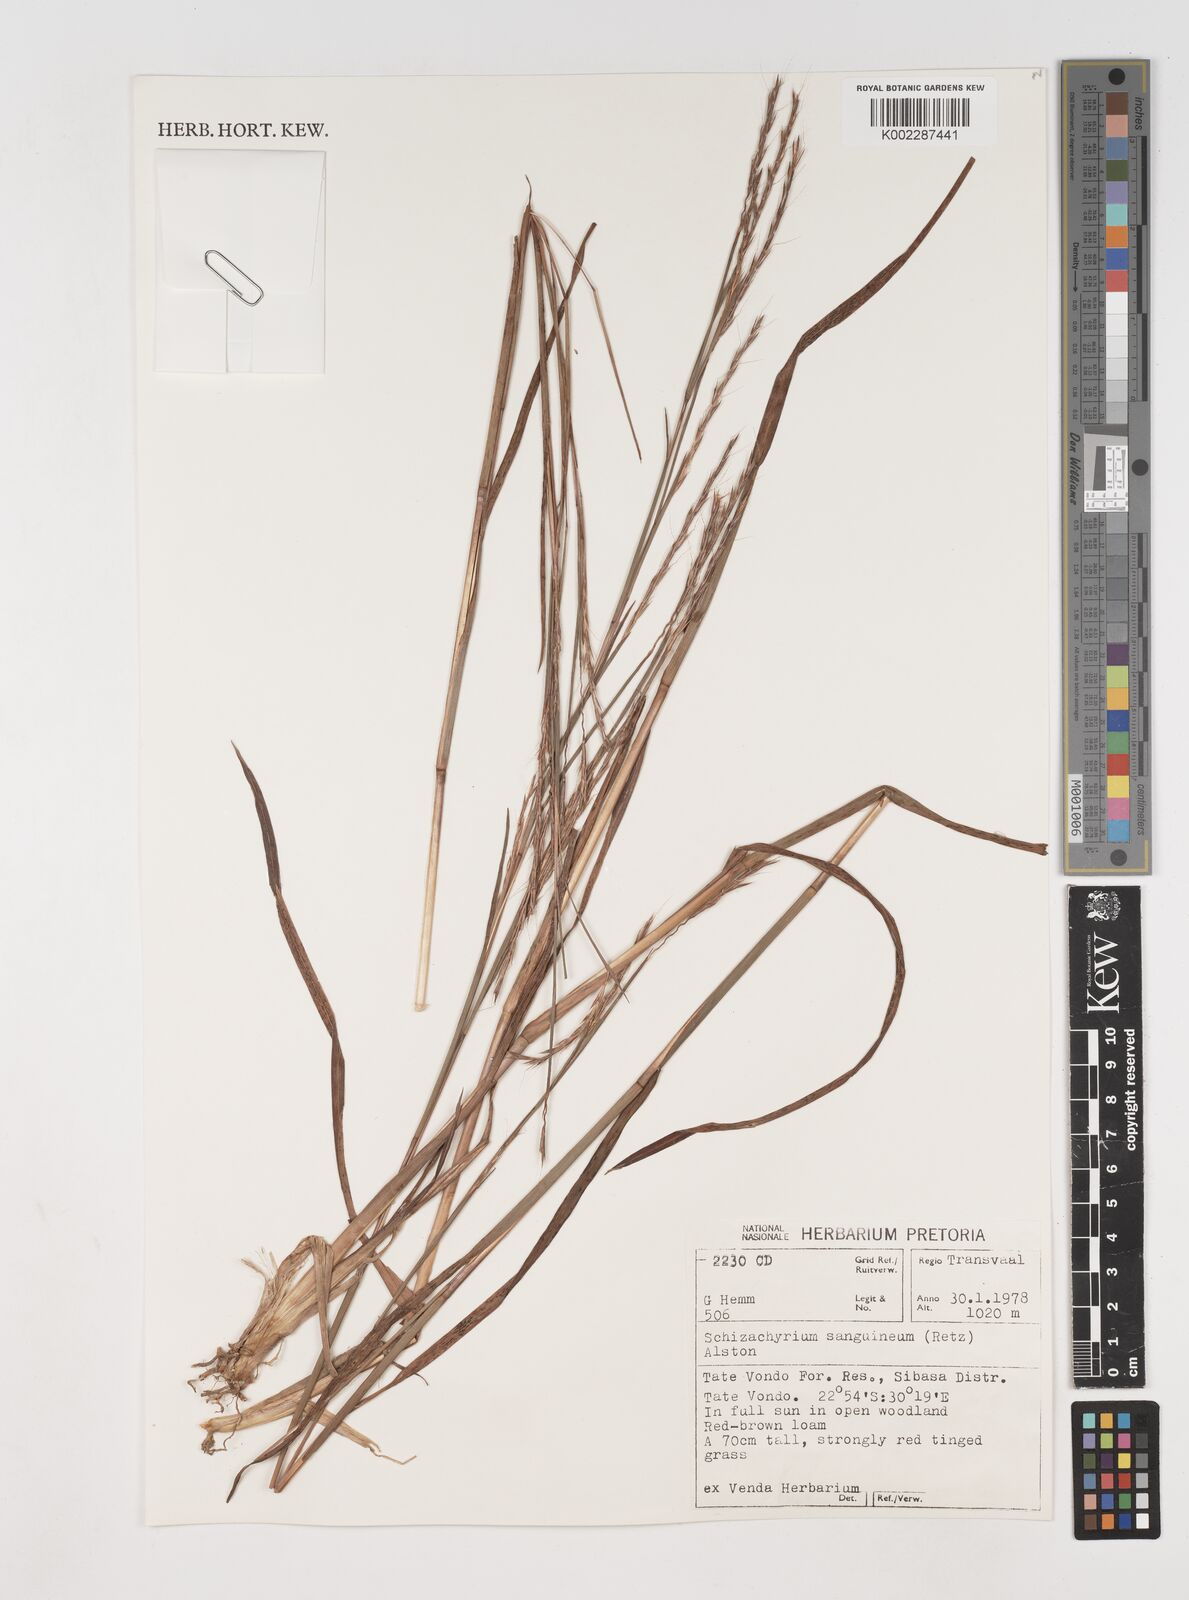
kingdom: Plantae
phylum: Tracheophyta
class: Liliopsida
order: Poales
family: Poaceae
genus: Schizachyrium
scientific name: Schizachyrium sanguineum
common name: Crimson bluestem
